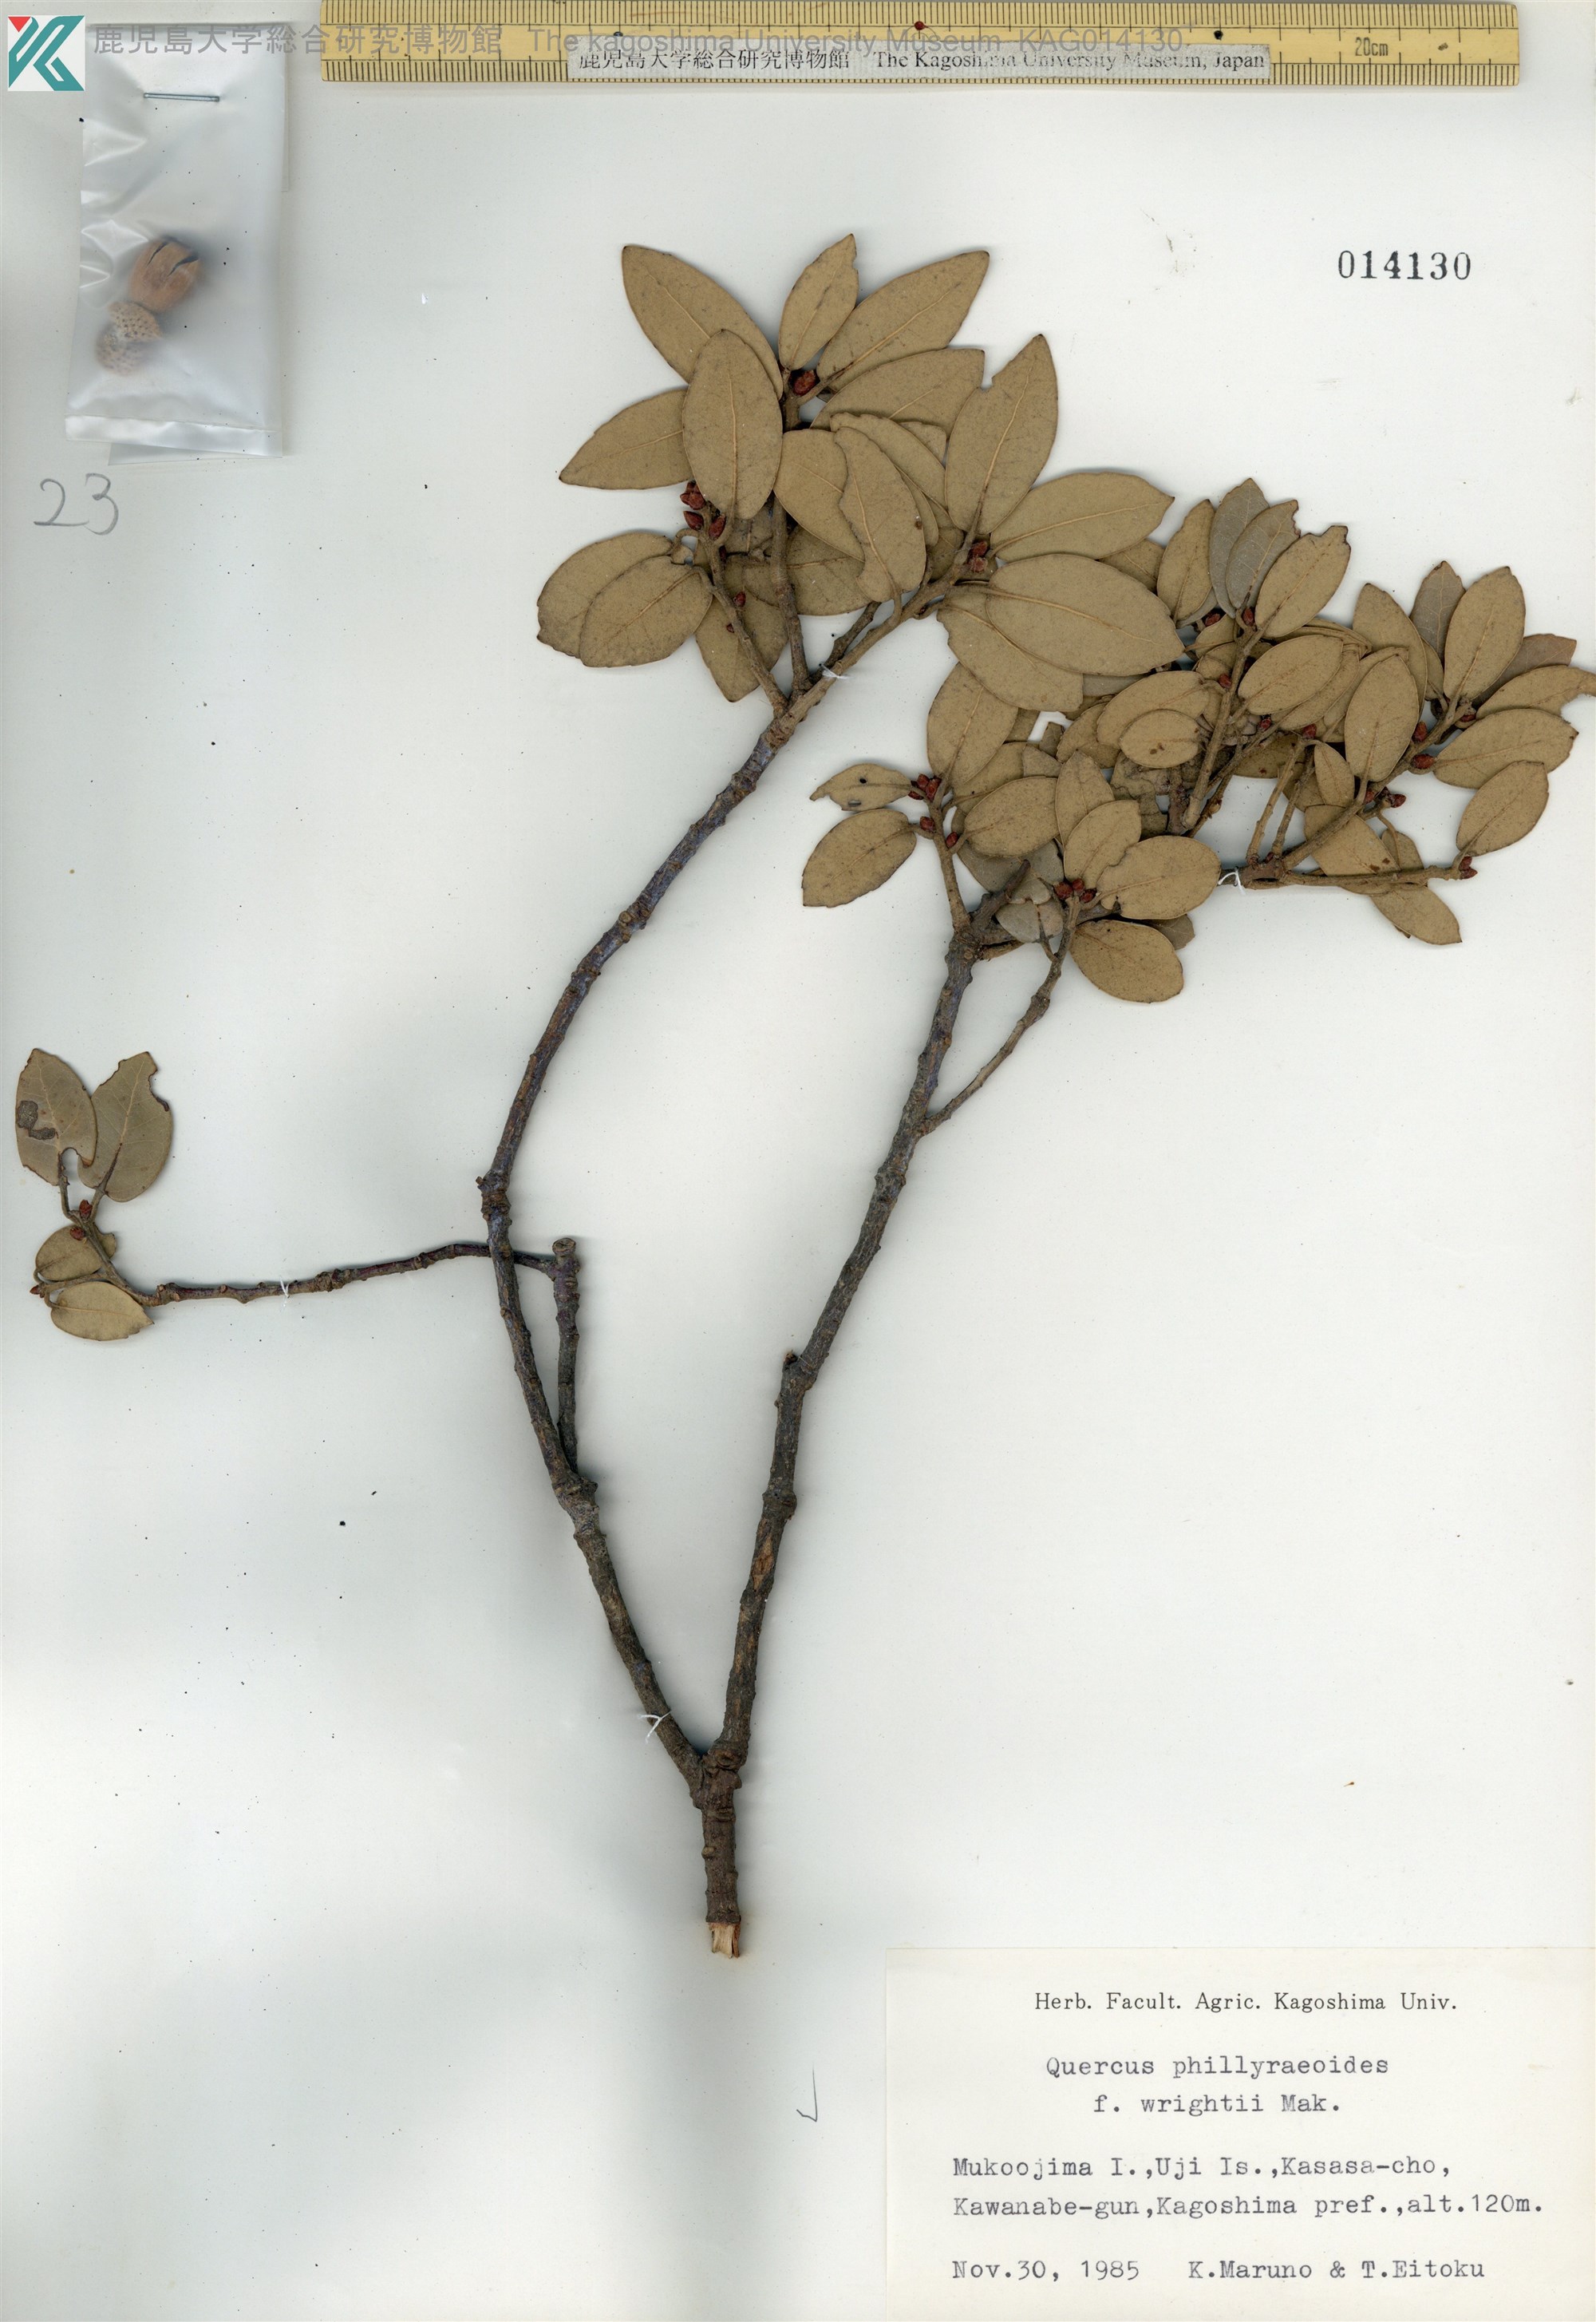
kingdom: Plantae
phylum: Tracheophyta
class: Magnoliopsida
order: Fagales
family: Fagaceae
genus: Quercus
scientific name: Quercus phillyreoides
